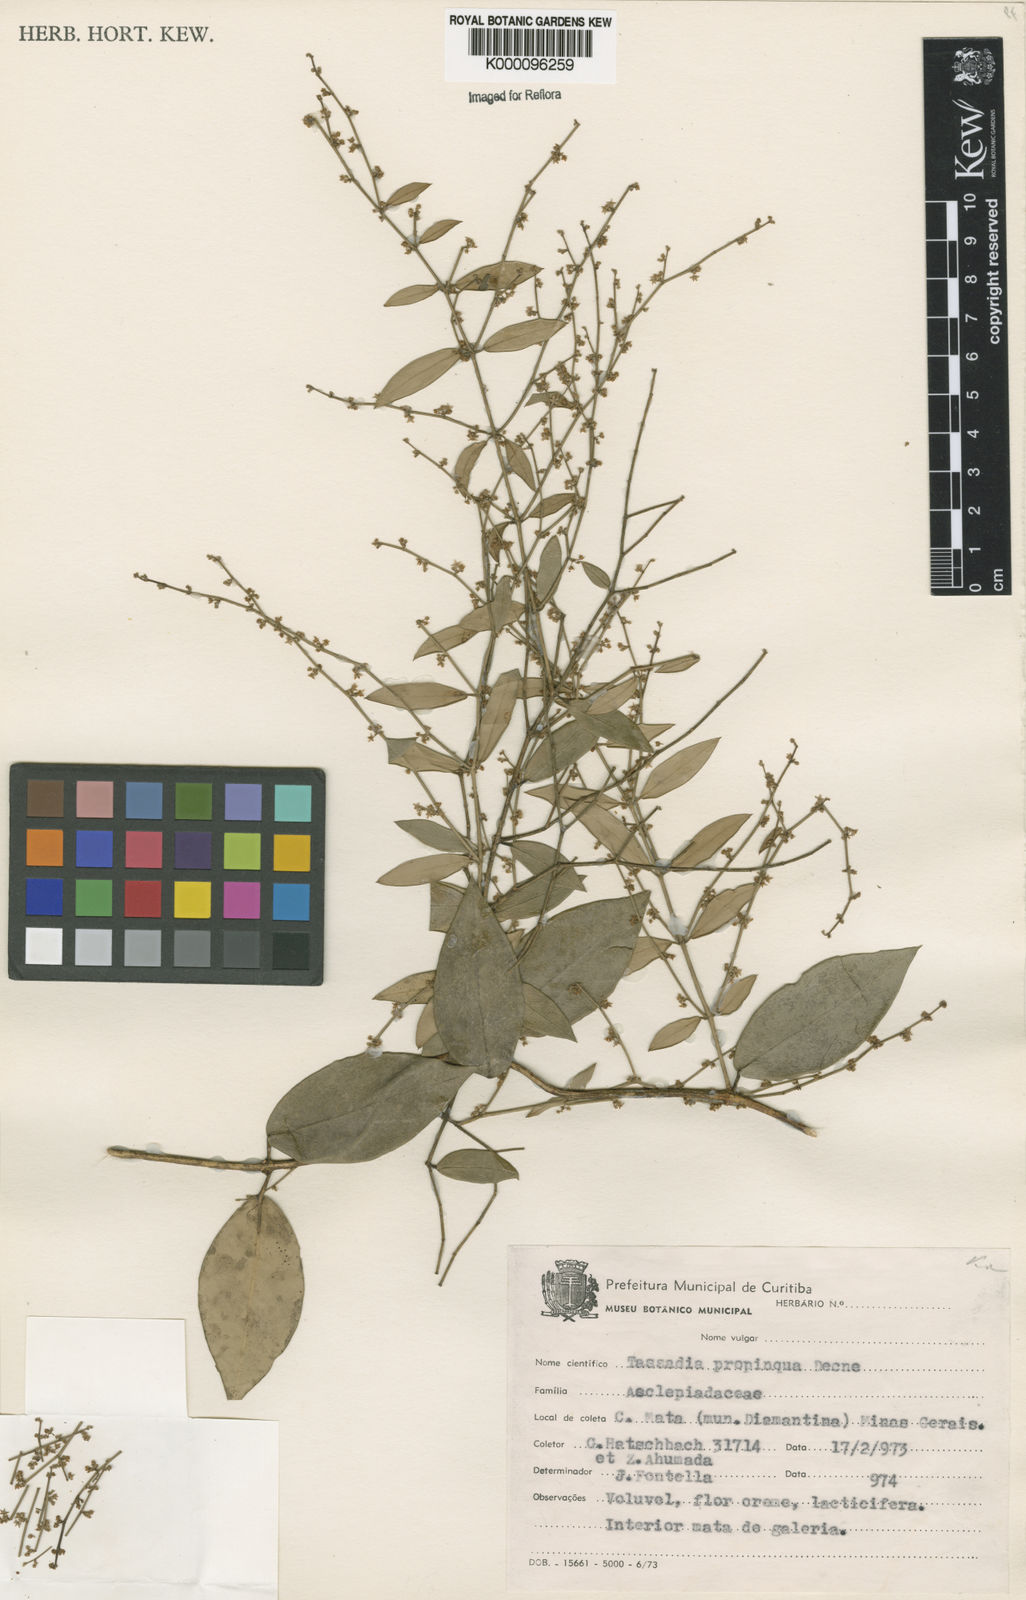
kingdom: Plantae
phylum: Tracheophyta
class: Magnoliopsida
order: Gentianales
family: Apocynaceae
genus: Tassadia
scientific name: Tassadia propinqua
